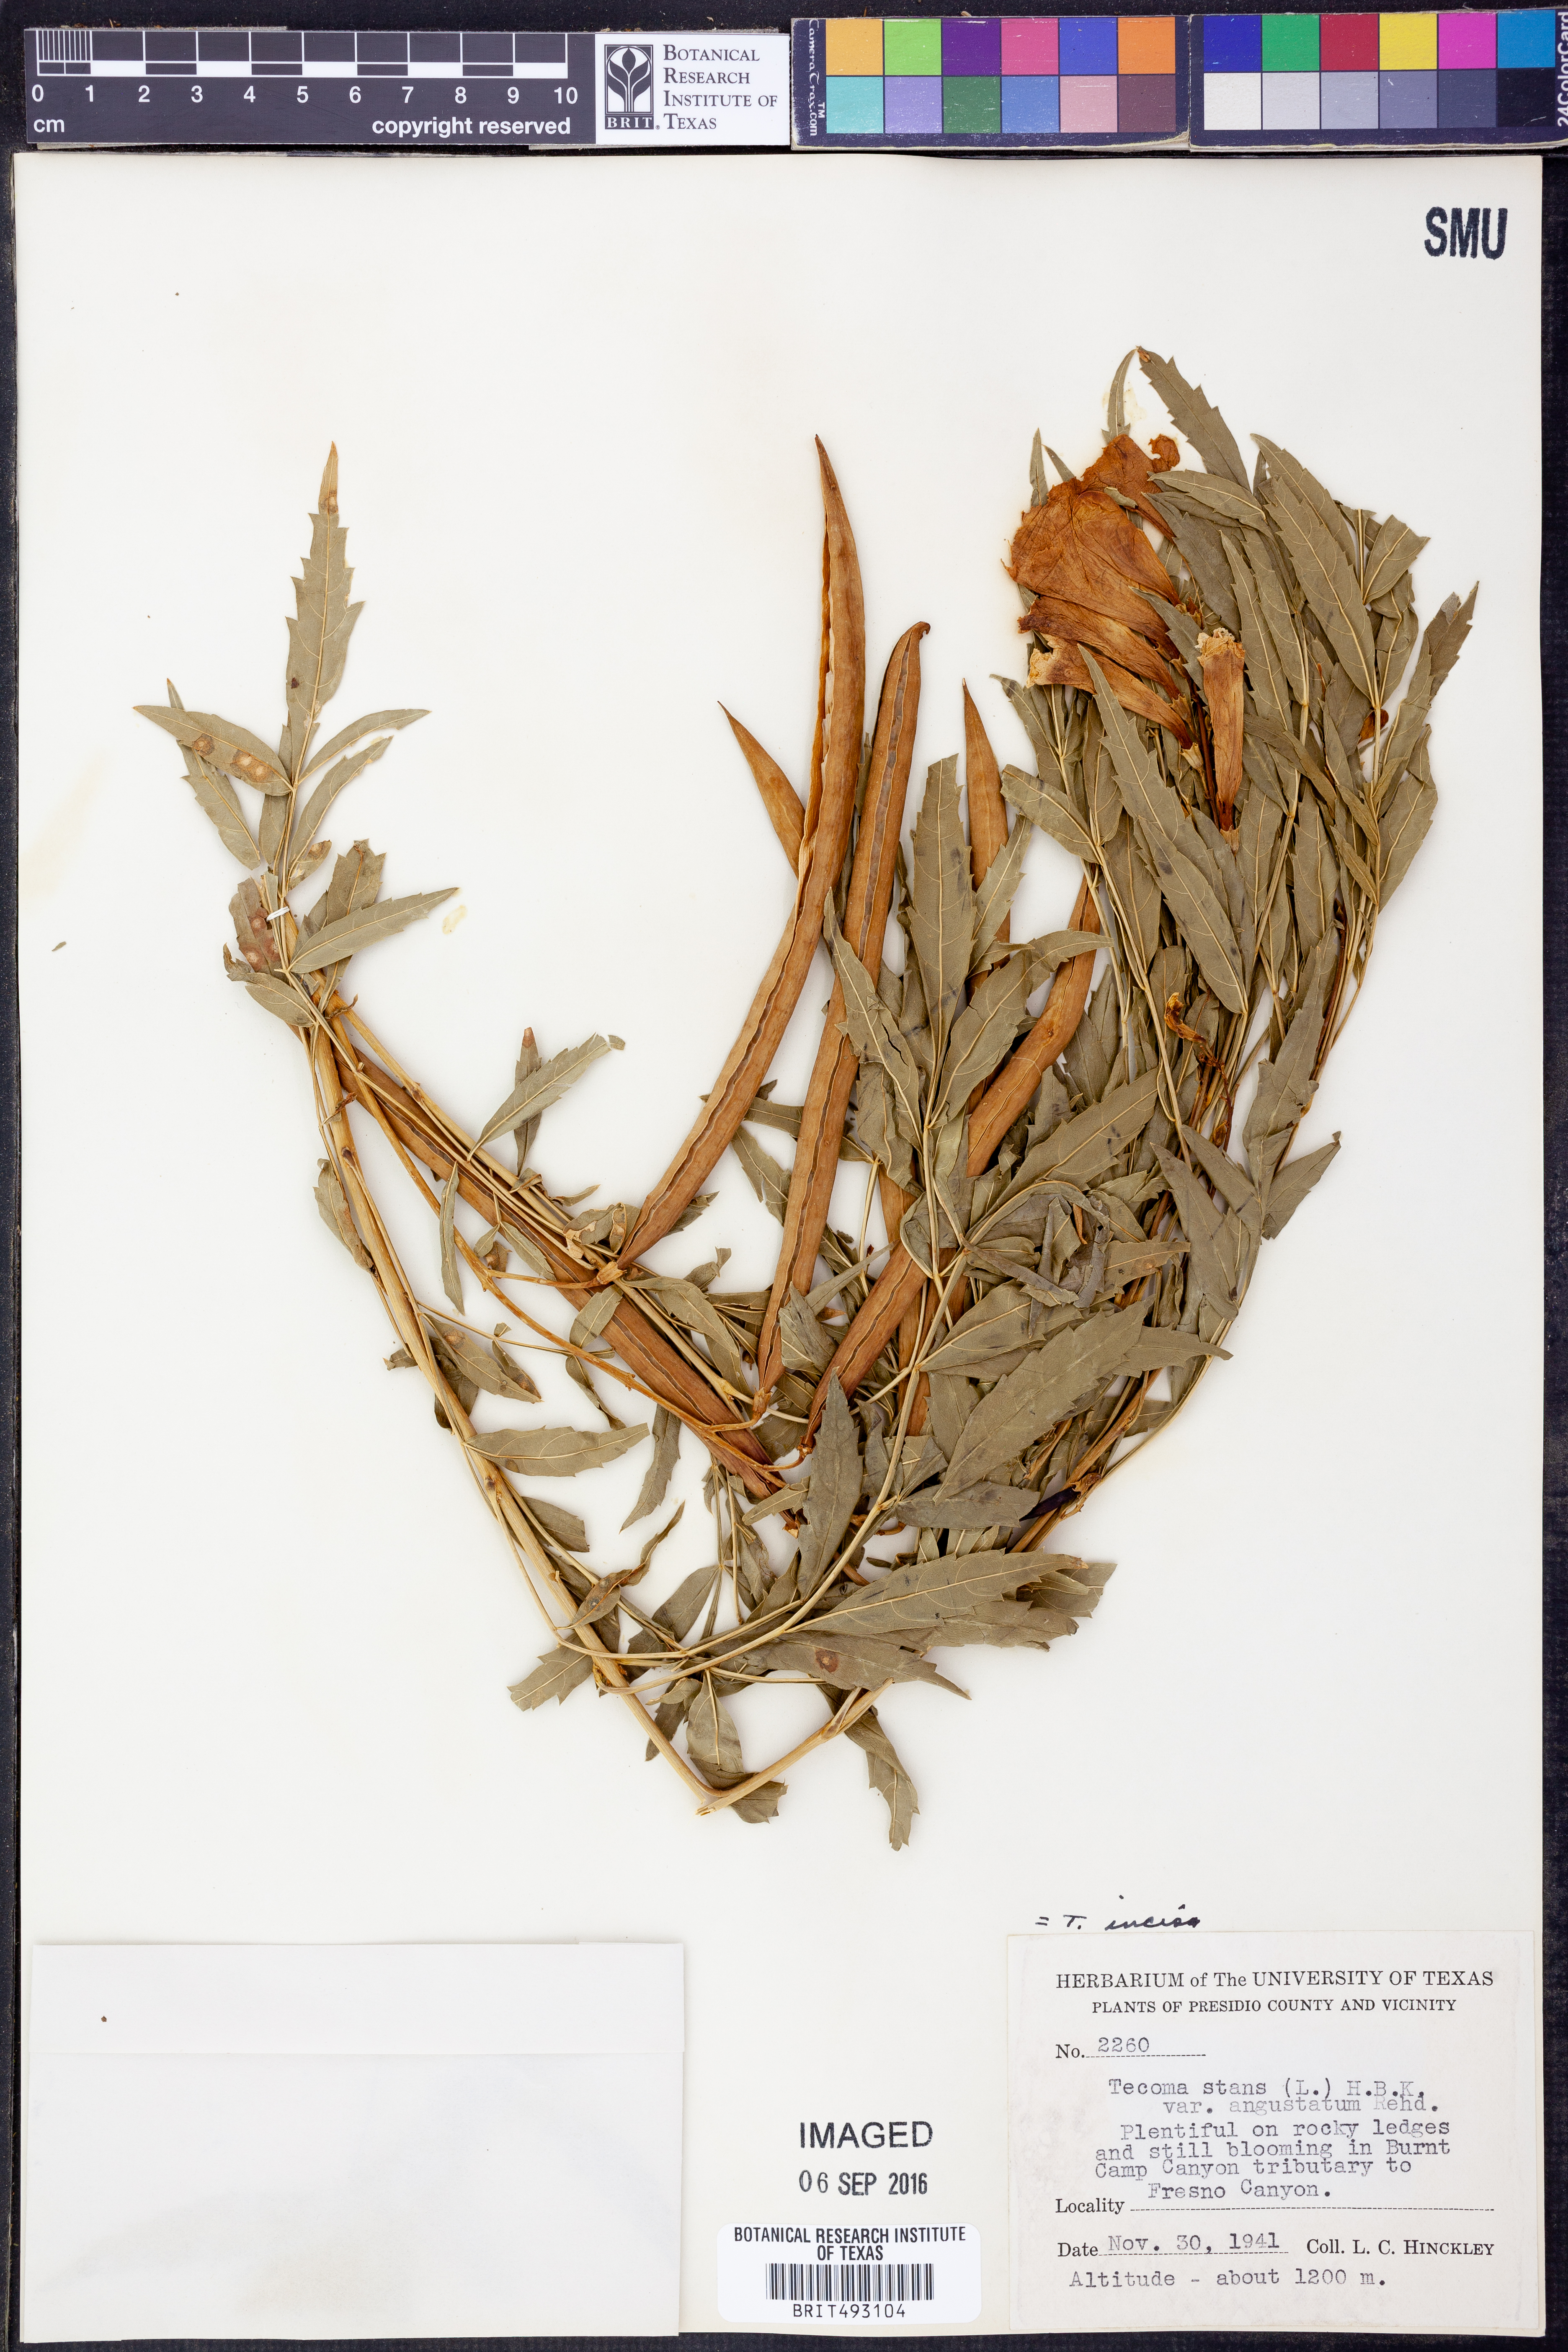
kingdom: Plantae
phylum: Tracheophyta
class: Magnoliopsida
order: Lamiales
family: Bignoniaceae
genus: Tecoma
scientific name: Tecoma stans
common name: Yellow trumpetbush
